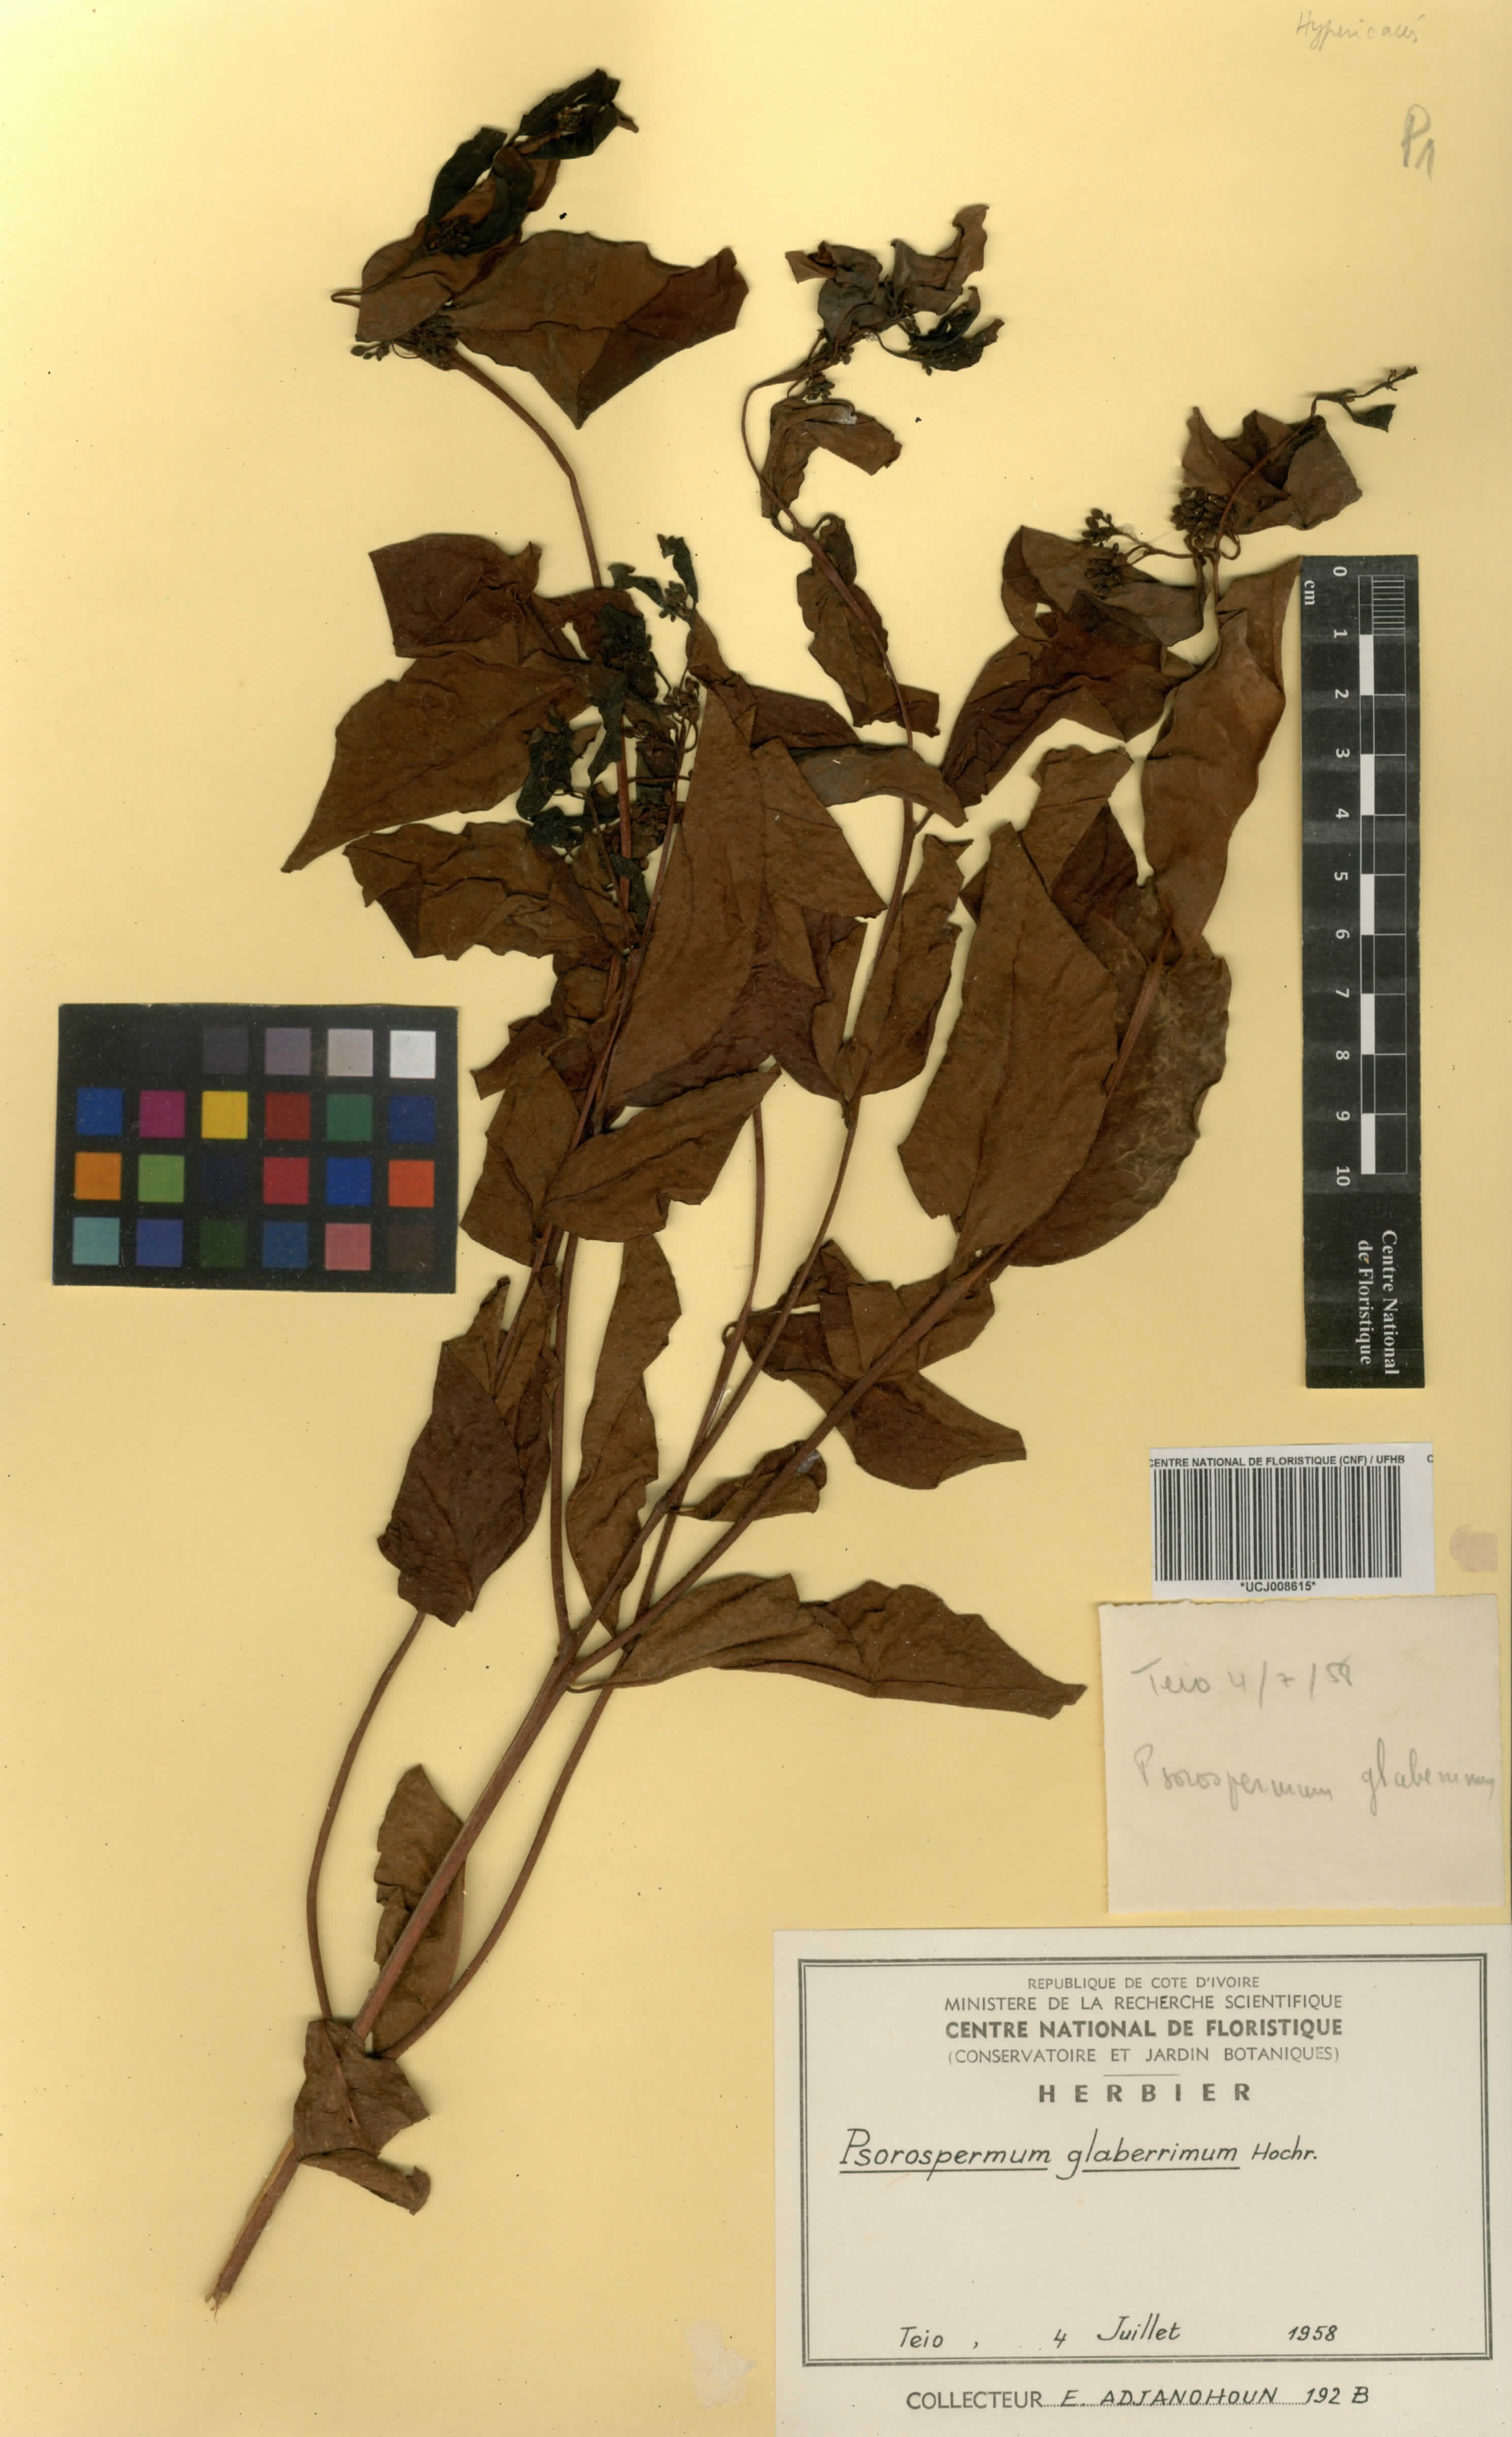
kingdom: Plantae
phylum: Tracheophyta
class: Magnoliopsida
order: Malpighiales
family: Hypericaceae
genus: Psorospermum
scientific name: Psorospermum glaberrimum
